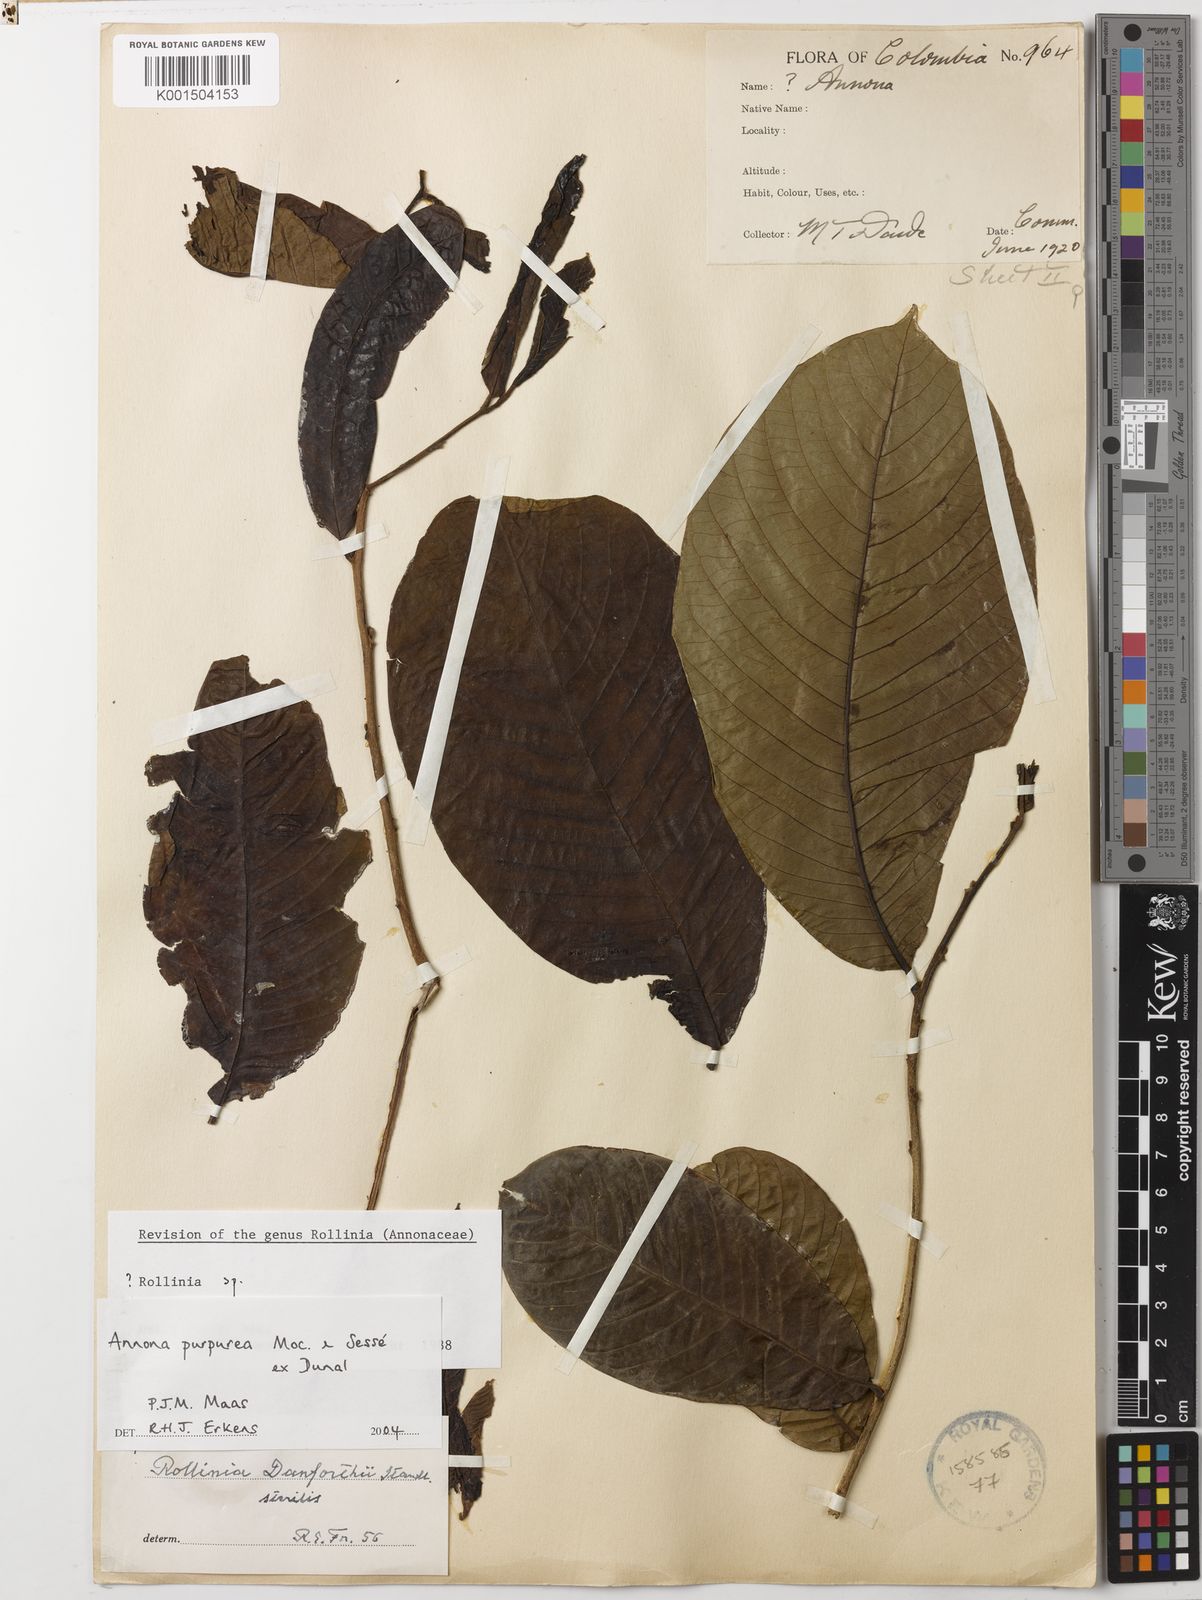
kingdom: Plantae
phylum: Tracheophyta
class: Magnoliopsida
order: Magnoliales
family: Annonaceae
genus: Annona
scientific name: Annona purpurea
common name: Negrohead
